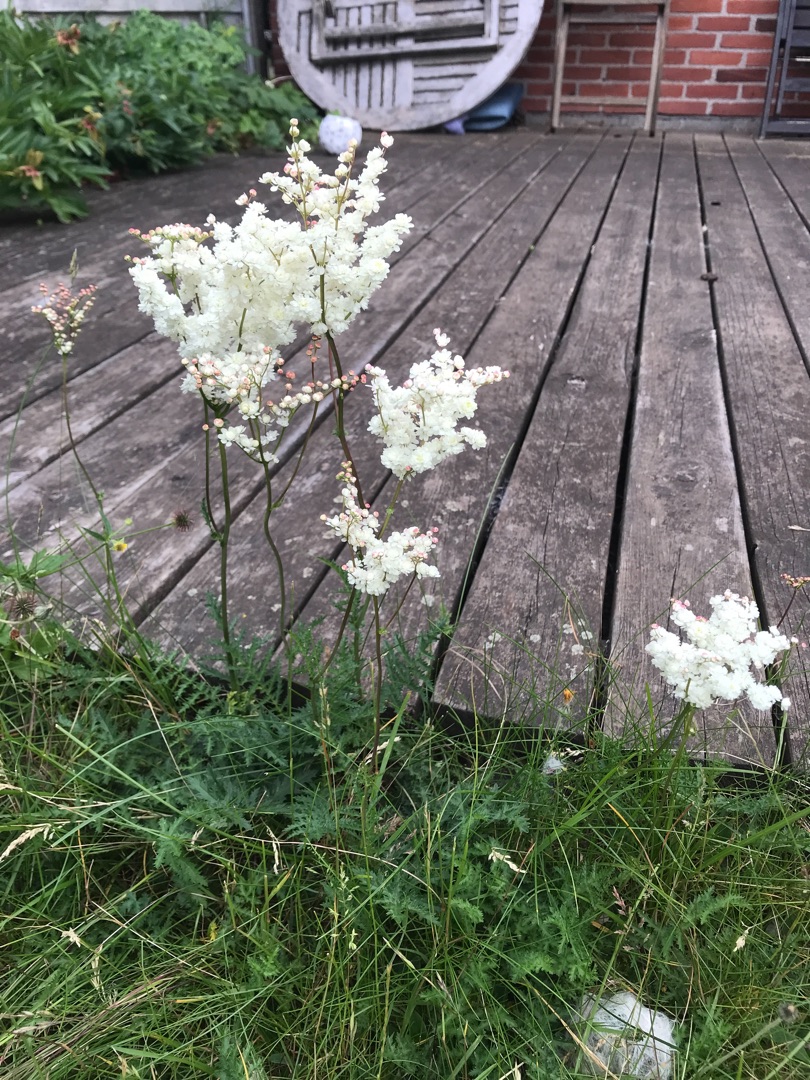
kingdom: Plantae
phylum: Tracheophyta
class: Magnoliopsida
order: Rosales
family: Rosaceae
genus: Filipendula
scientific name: Filipendula vulgaris
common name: Knoldet mjødurt
